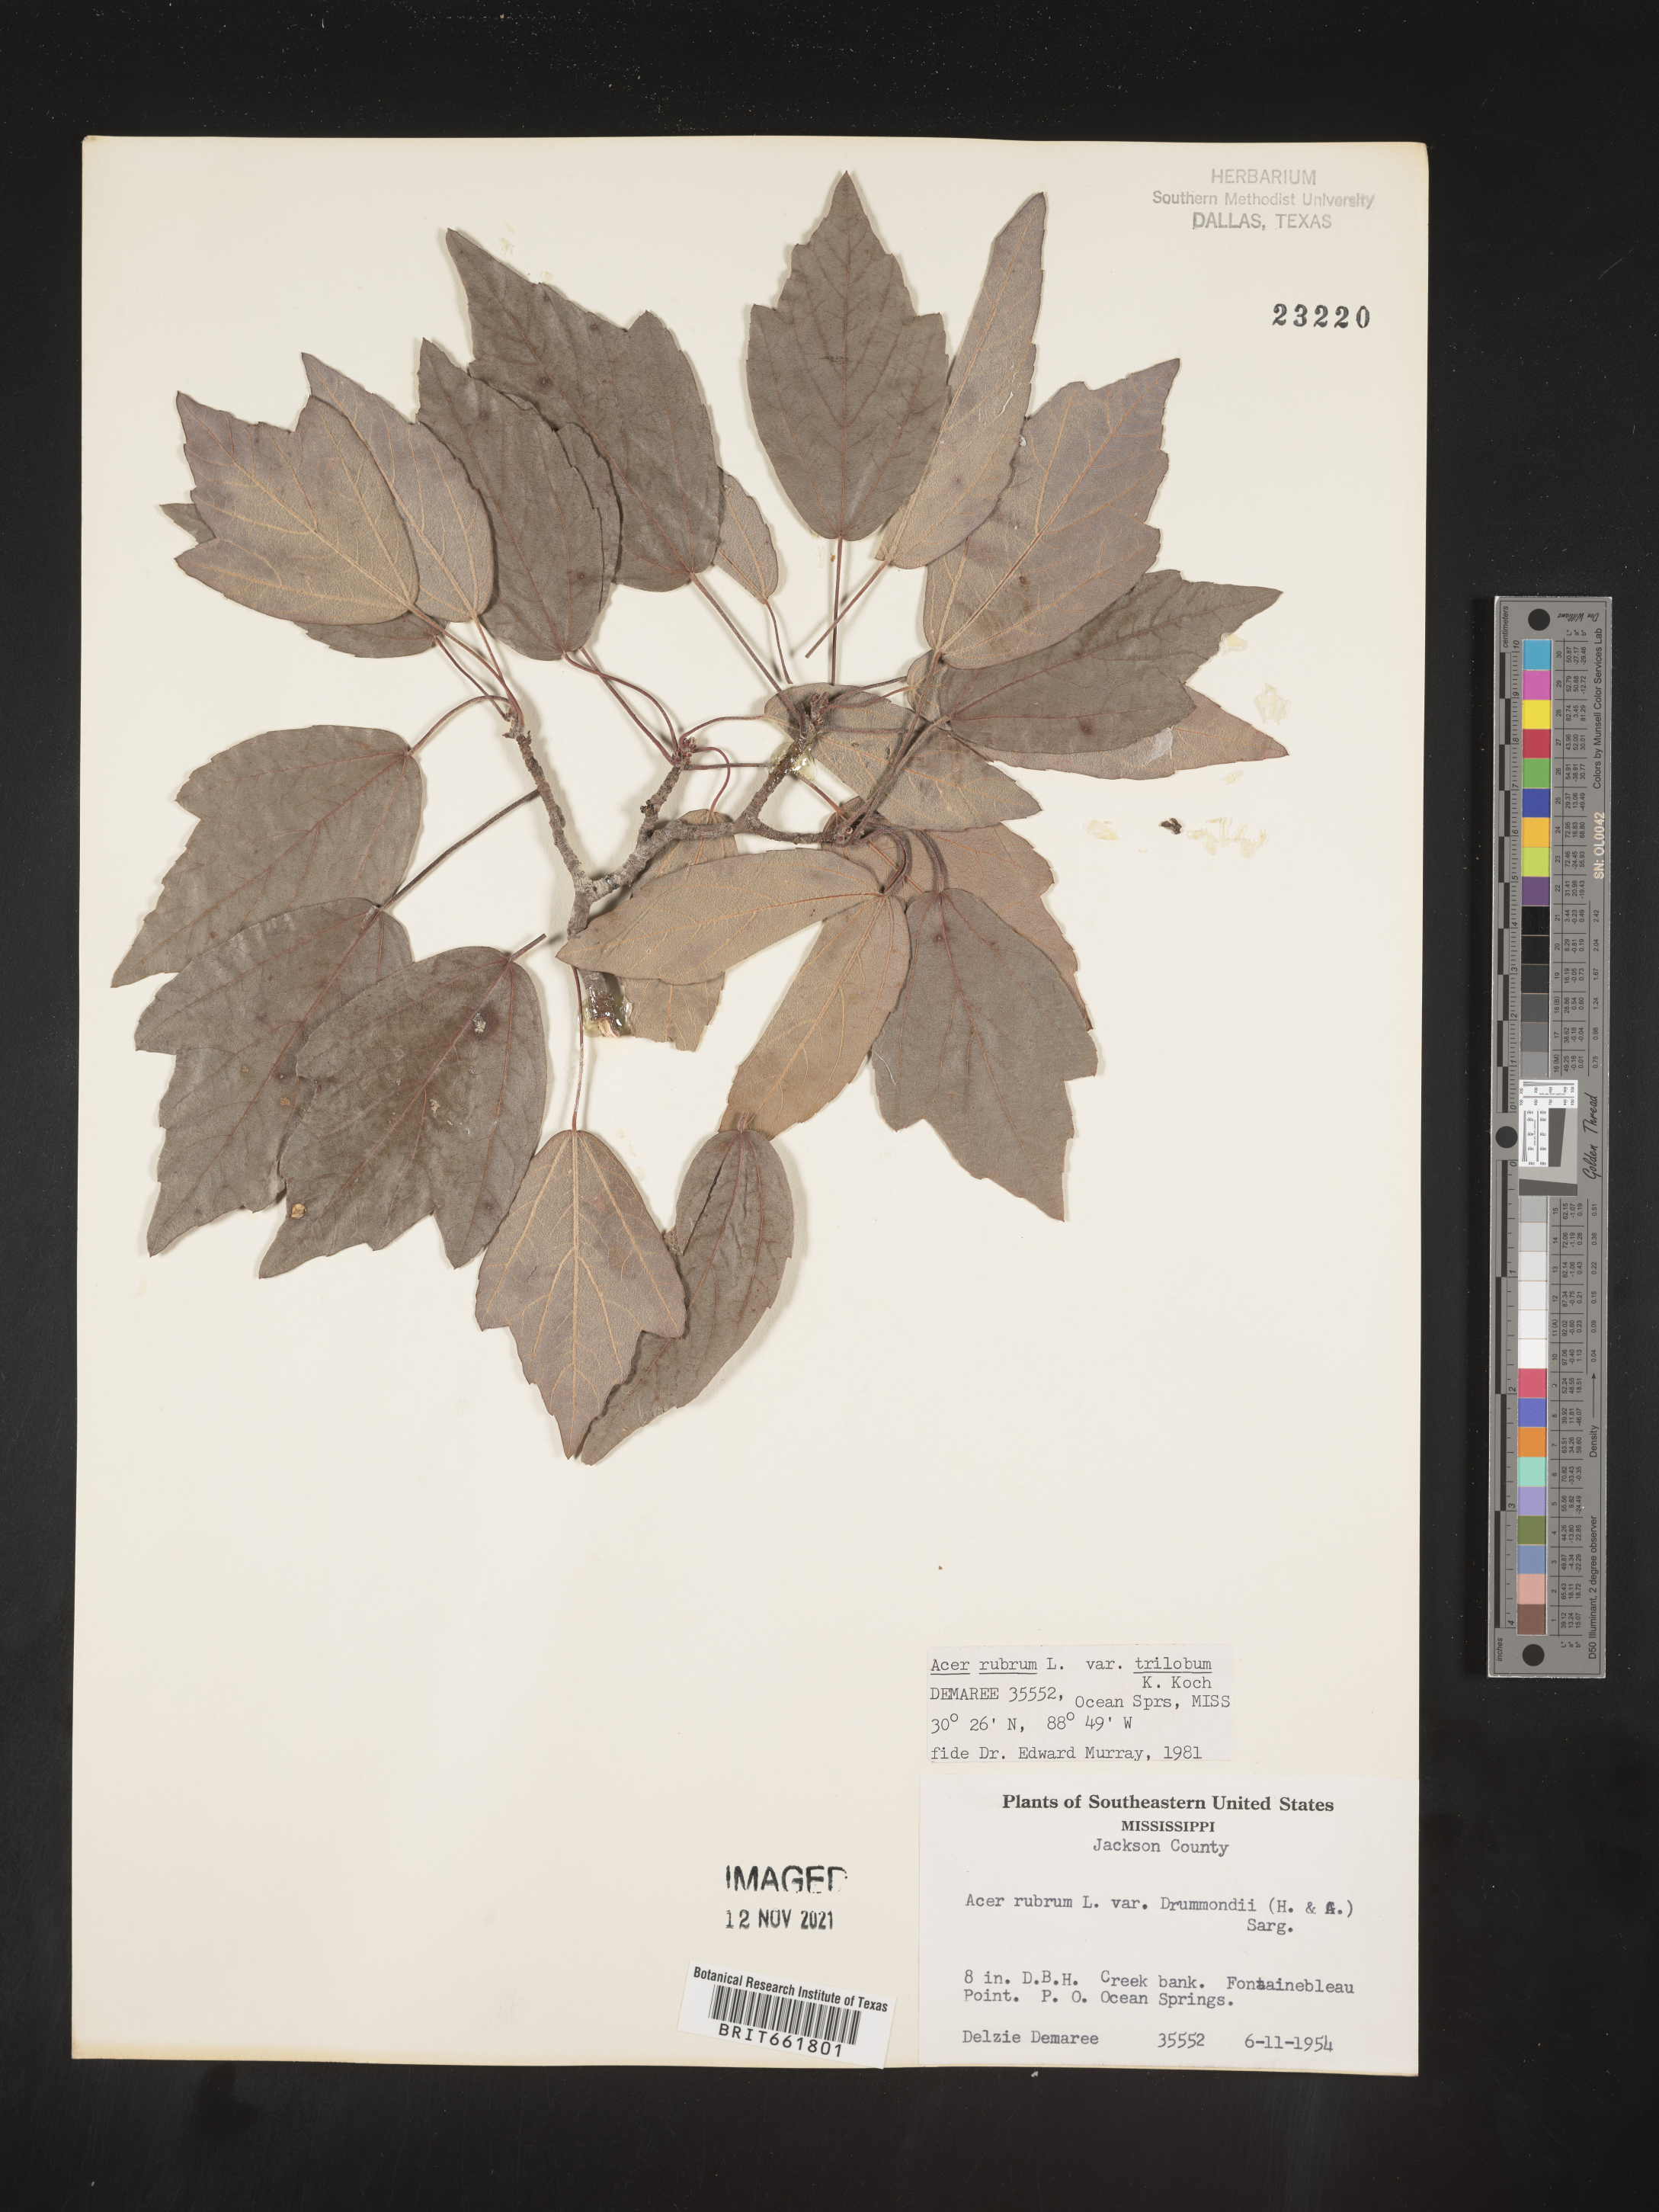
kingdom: Plantae
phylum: Tracheophyta
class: Magnoliopsida
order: Sapindales
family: Sapindaceae
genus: Acer
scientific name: Acer rubrum
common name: Red maple
